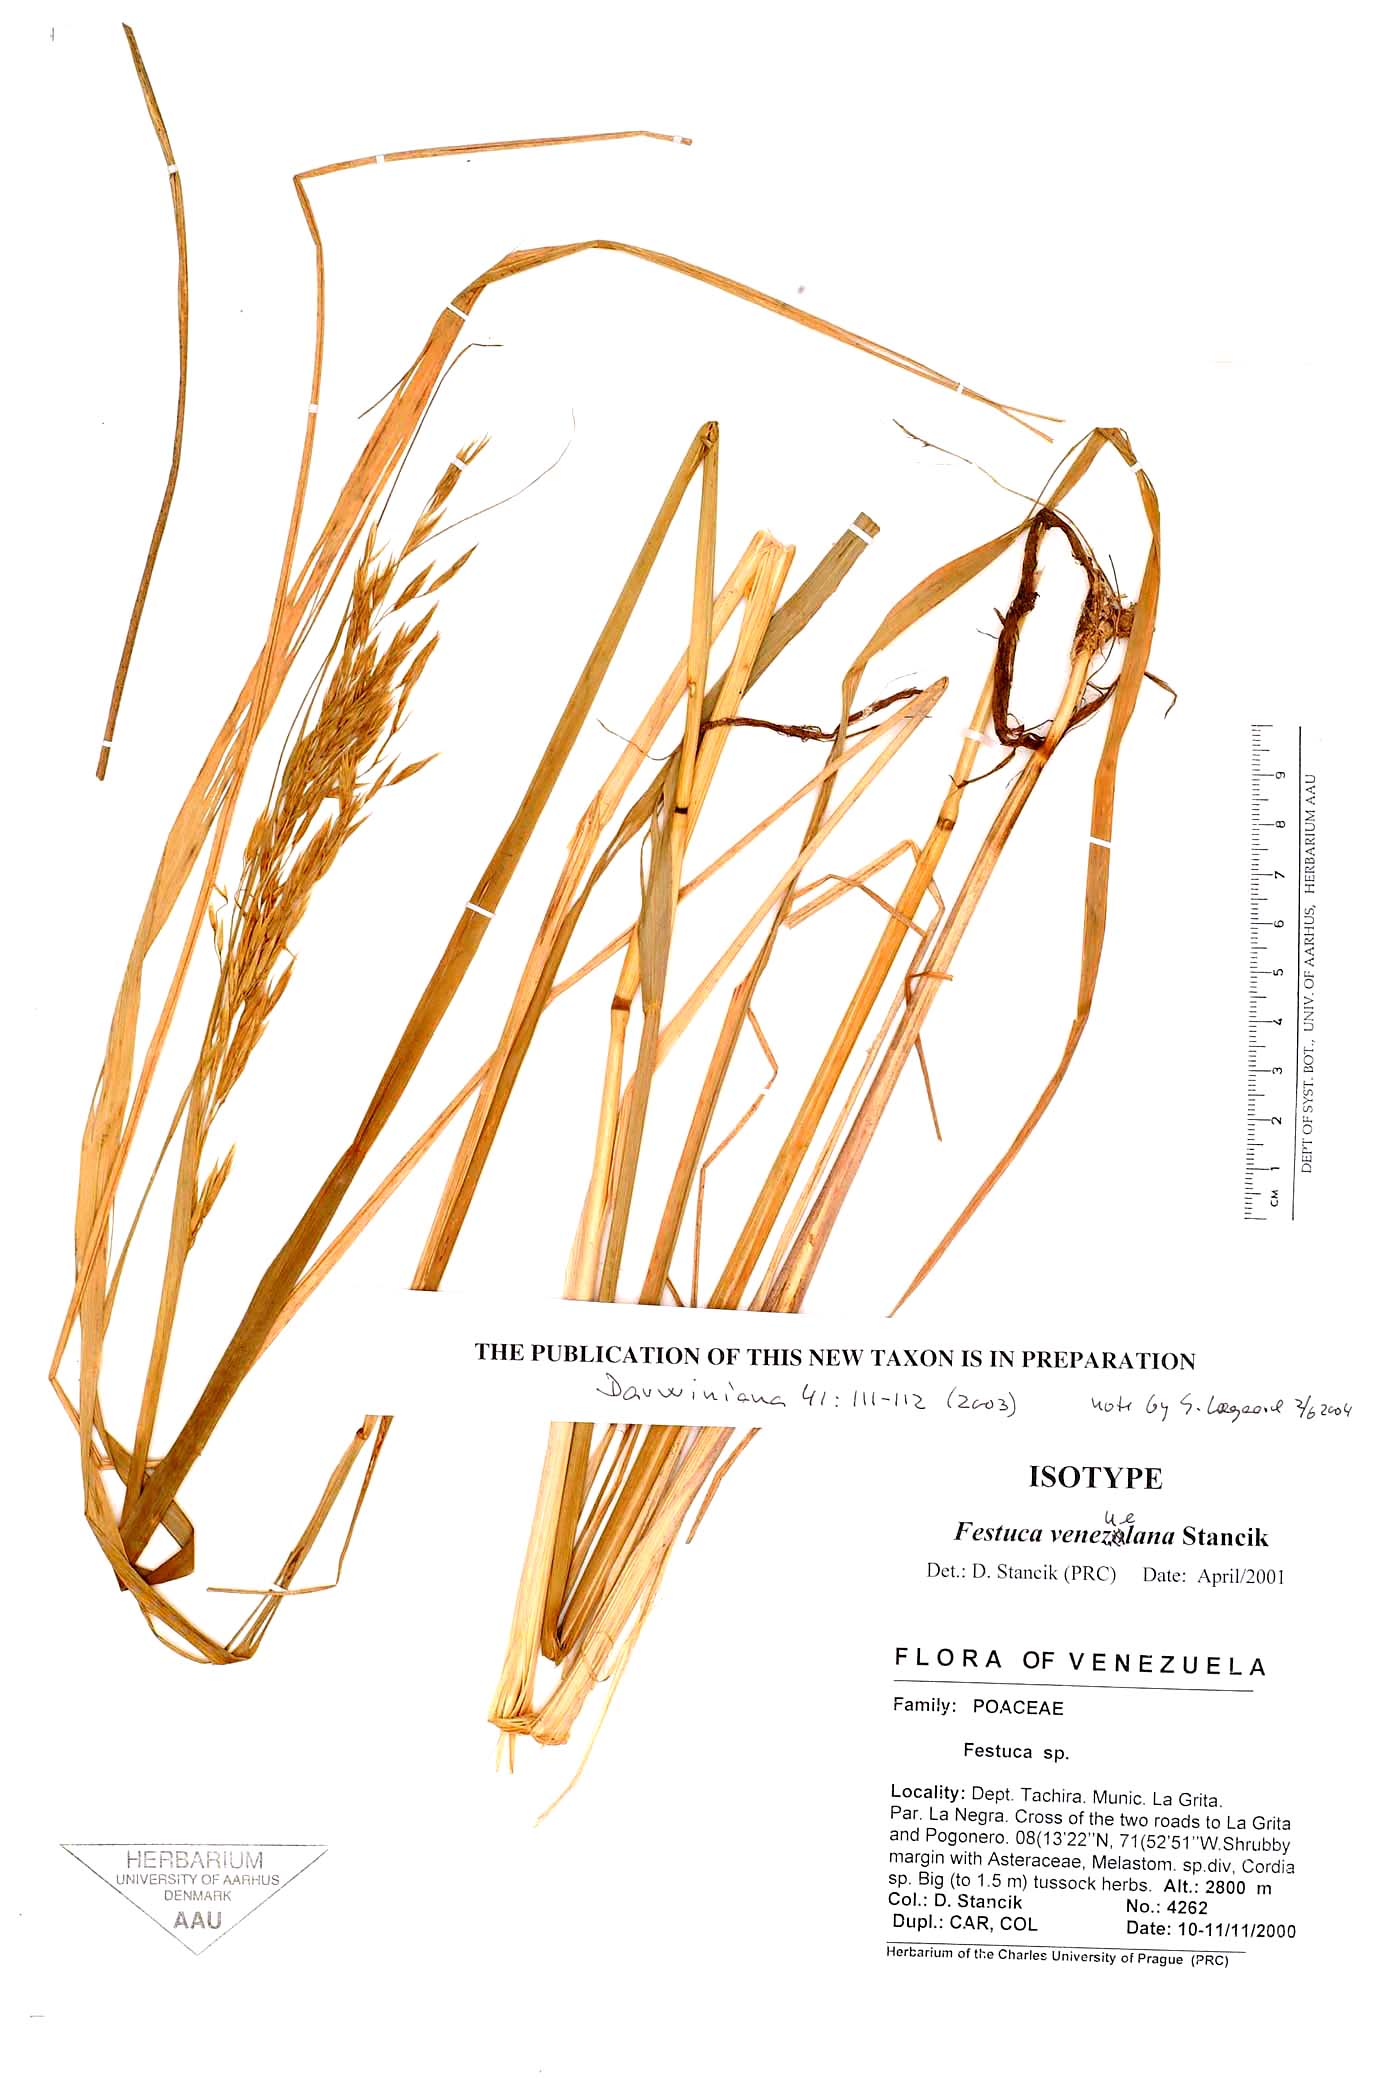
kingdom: Plantae
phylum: Tracheophyta
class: Liliopsida
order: Poales
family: Poaceae
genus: Festuca
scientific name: Festuca venezuelana
